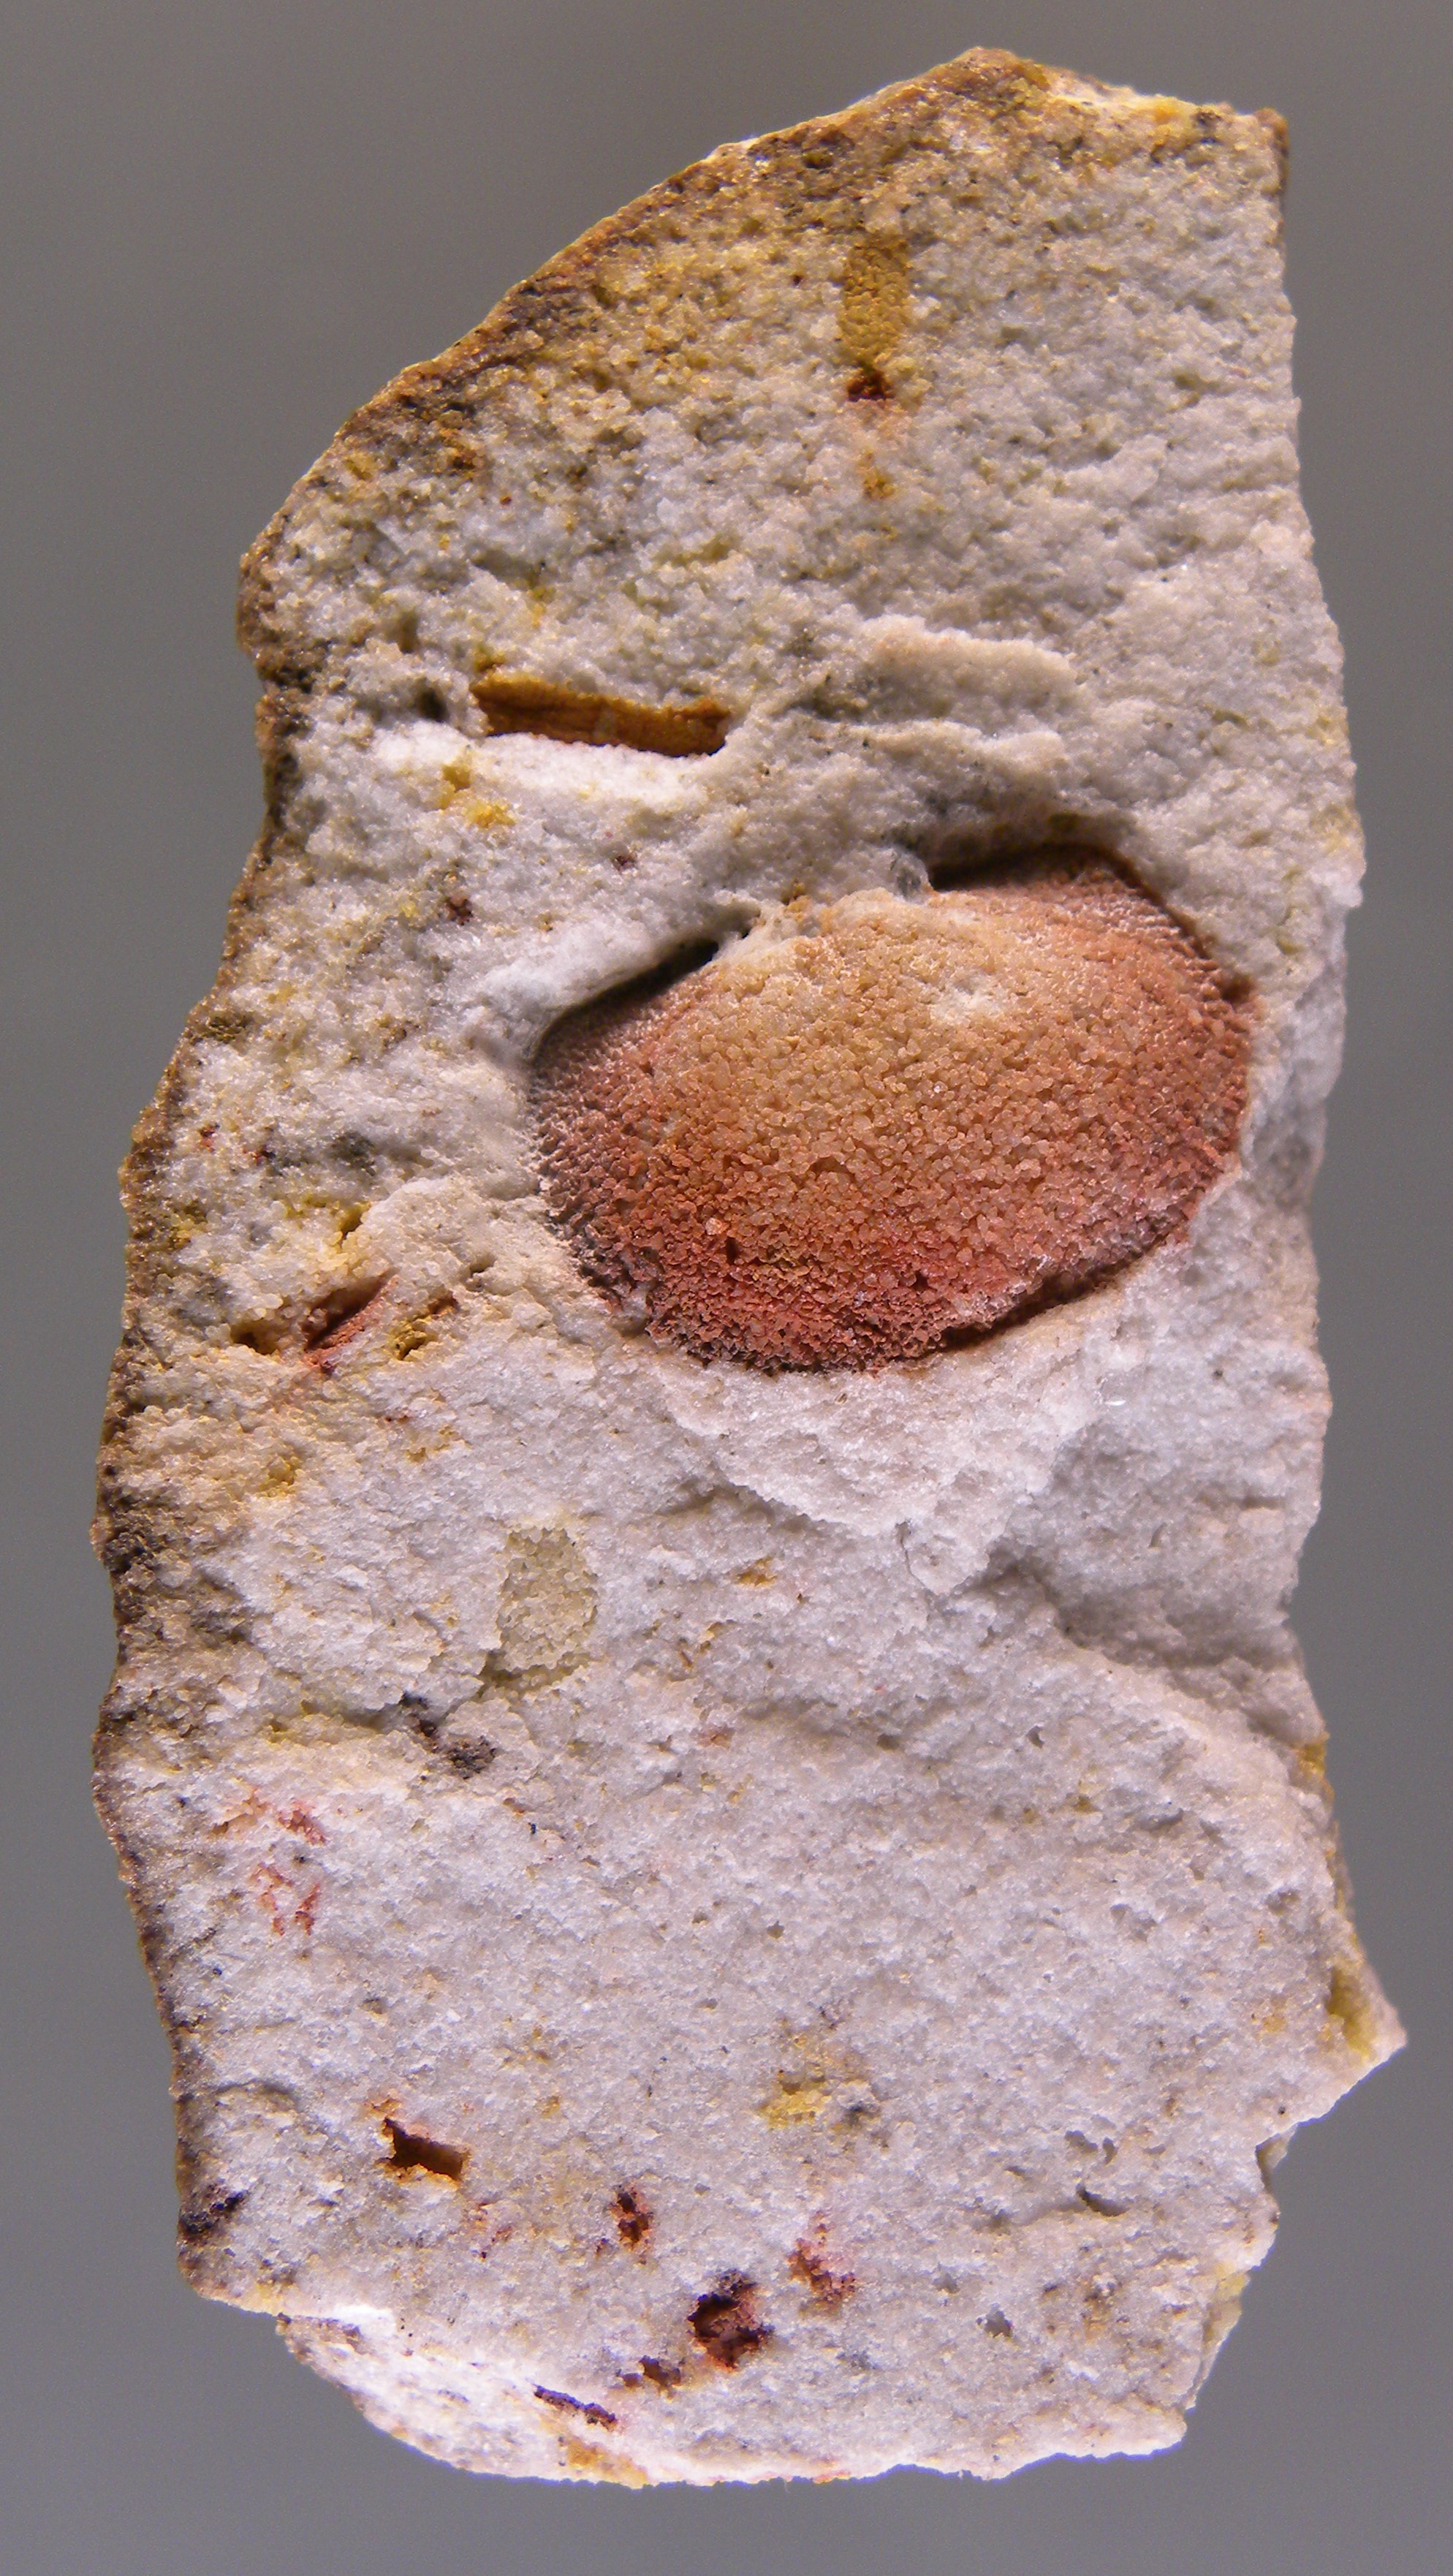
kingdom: Animalia
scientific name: Animalia
